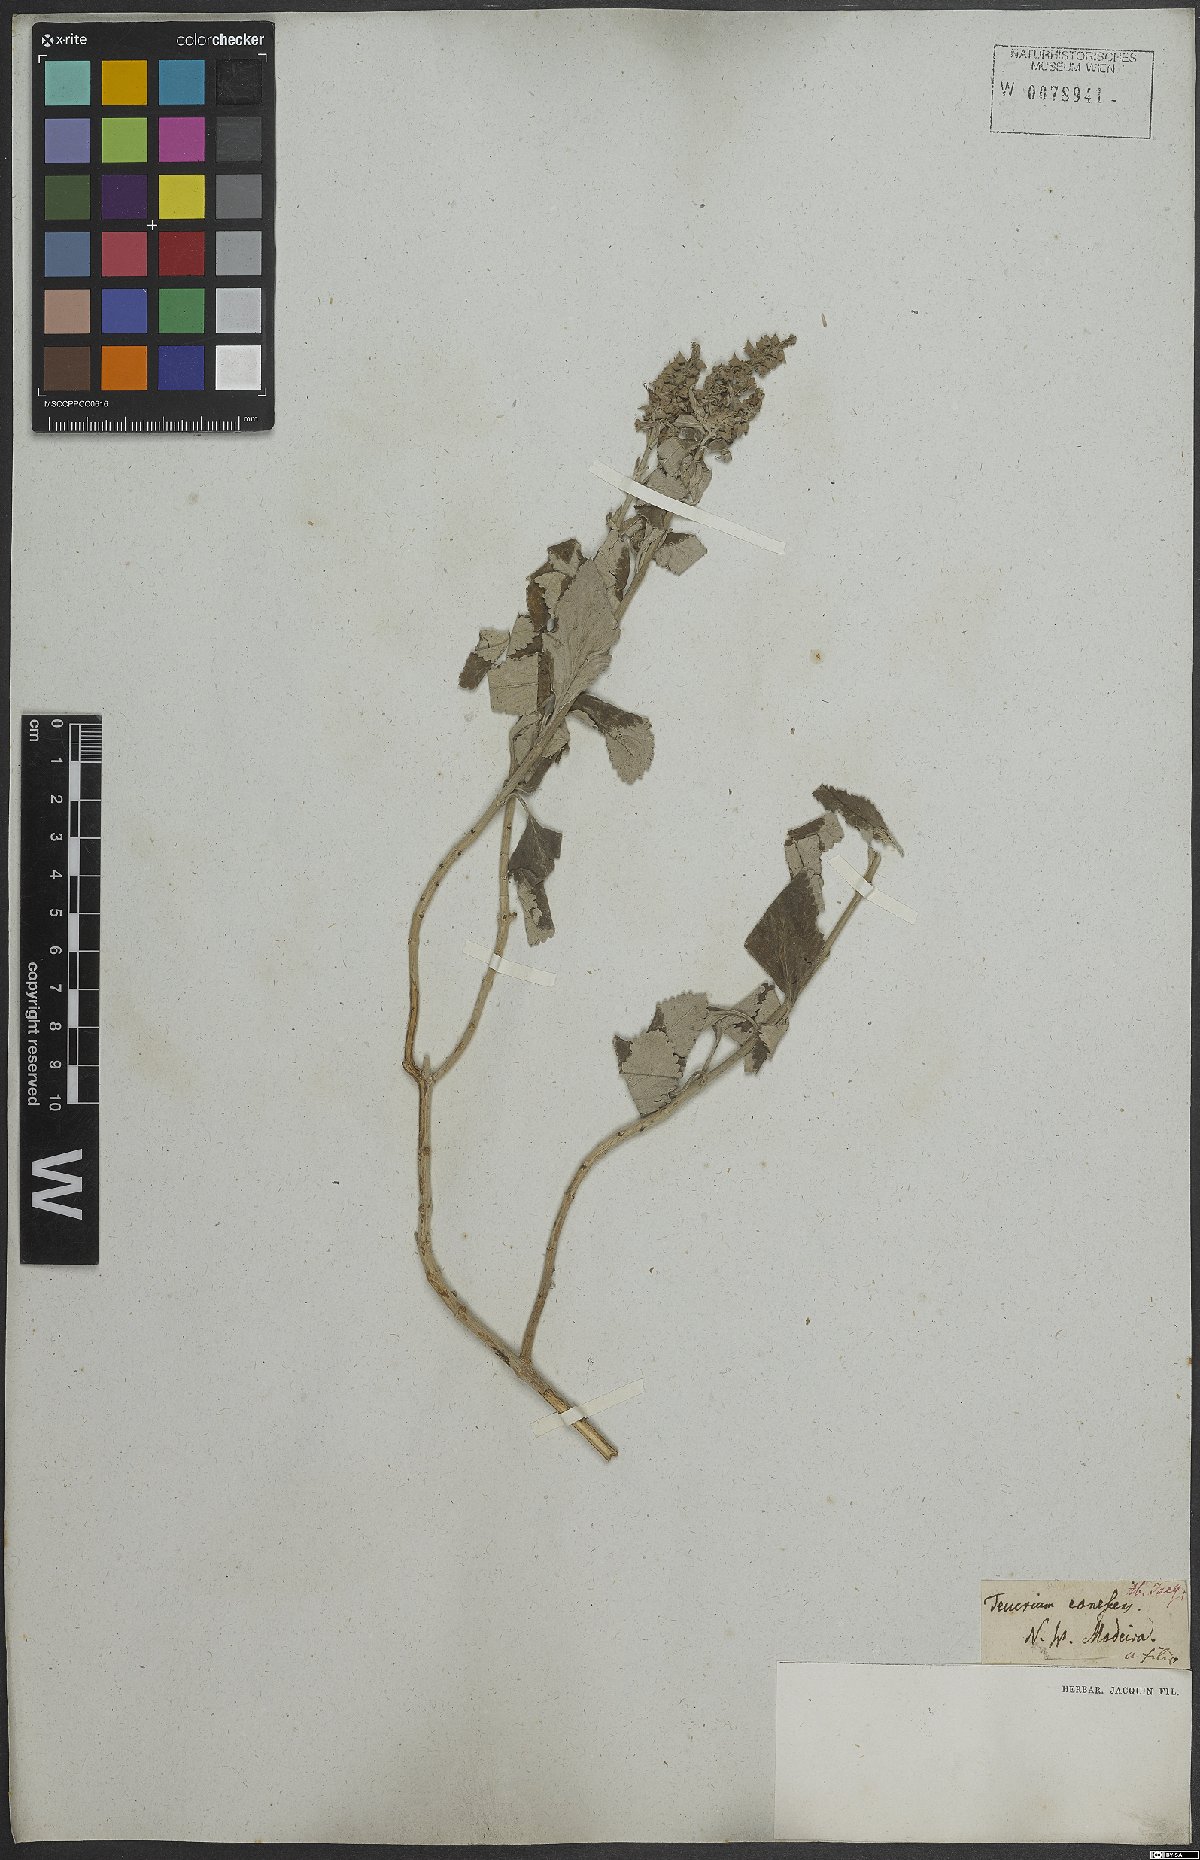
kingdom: Plantae
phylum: Tracheophyta
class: Magnoliopsida
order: Lamiales
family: Lamiaceae
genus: Teucrium
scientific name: Teucrium betonicum
